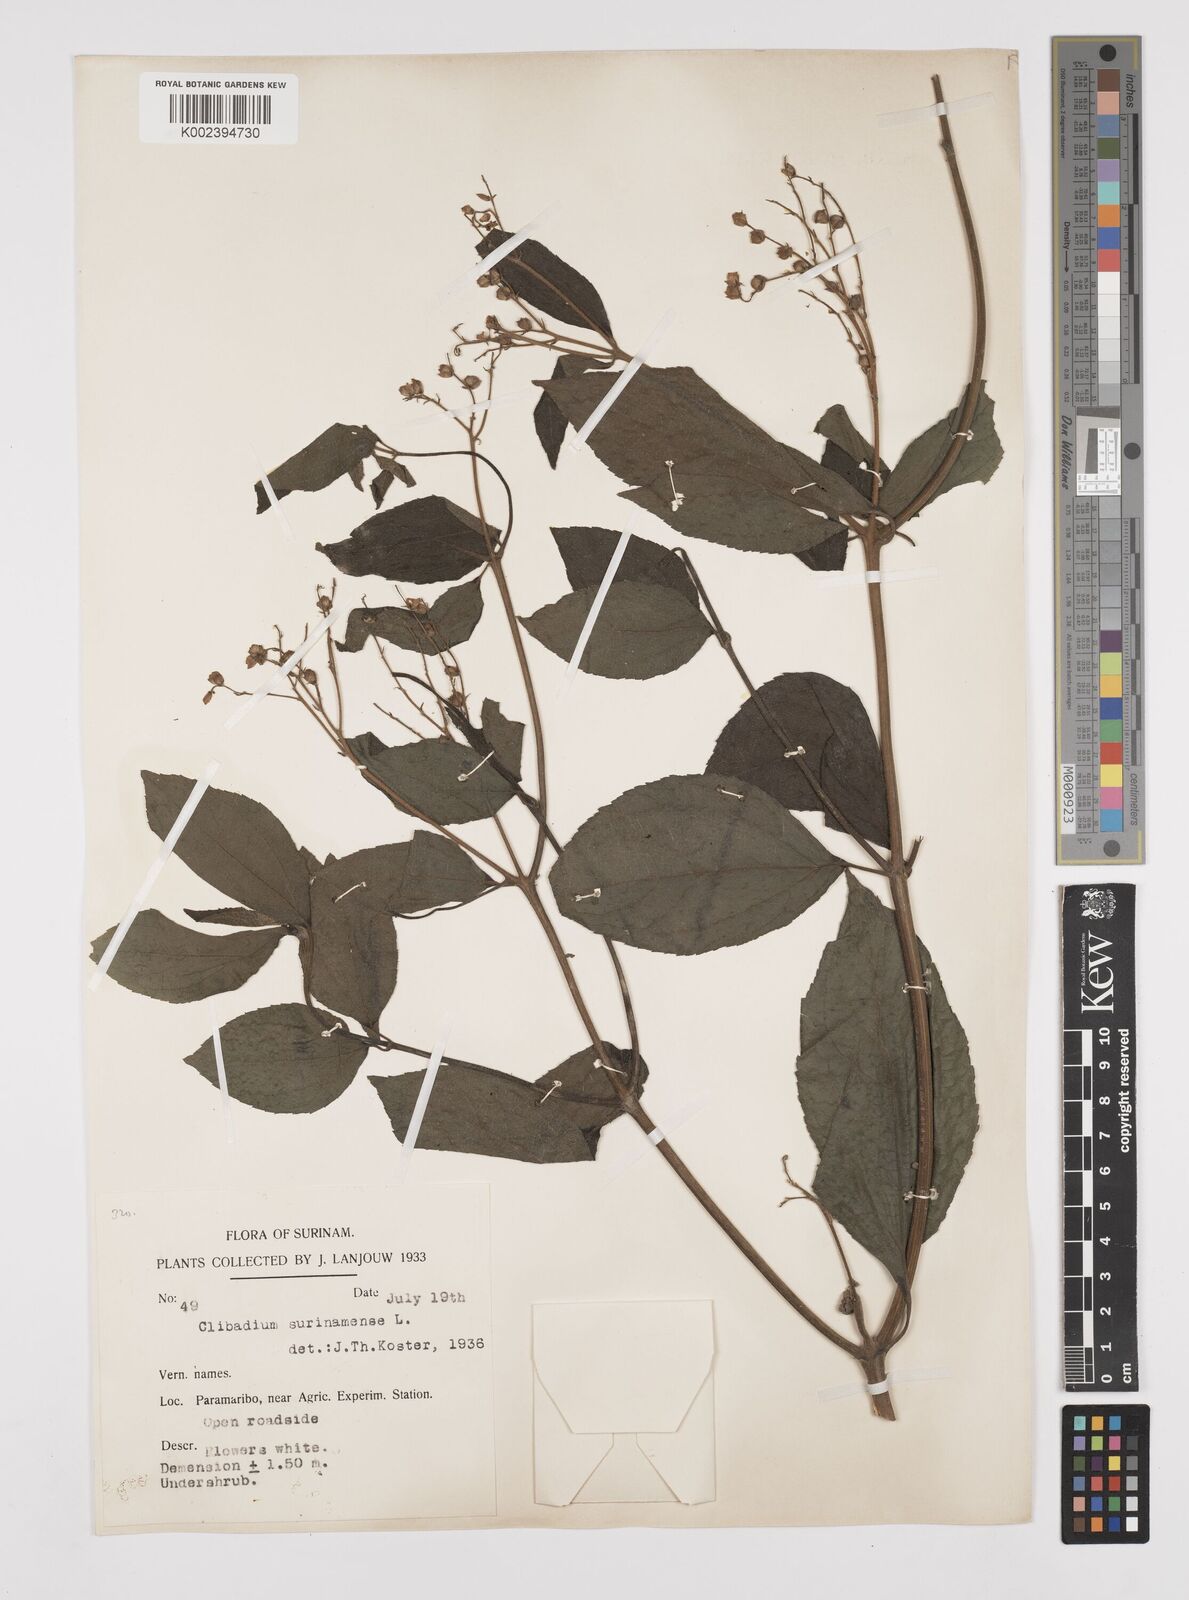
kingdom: Plantae
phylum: Tracheophyta
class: Magnoliopsida
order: Asterales
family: Asteraceae
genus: Clibadium
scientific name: Clibadium surinamense
